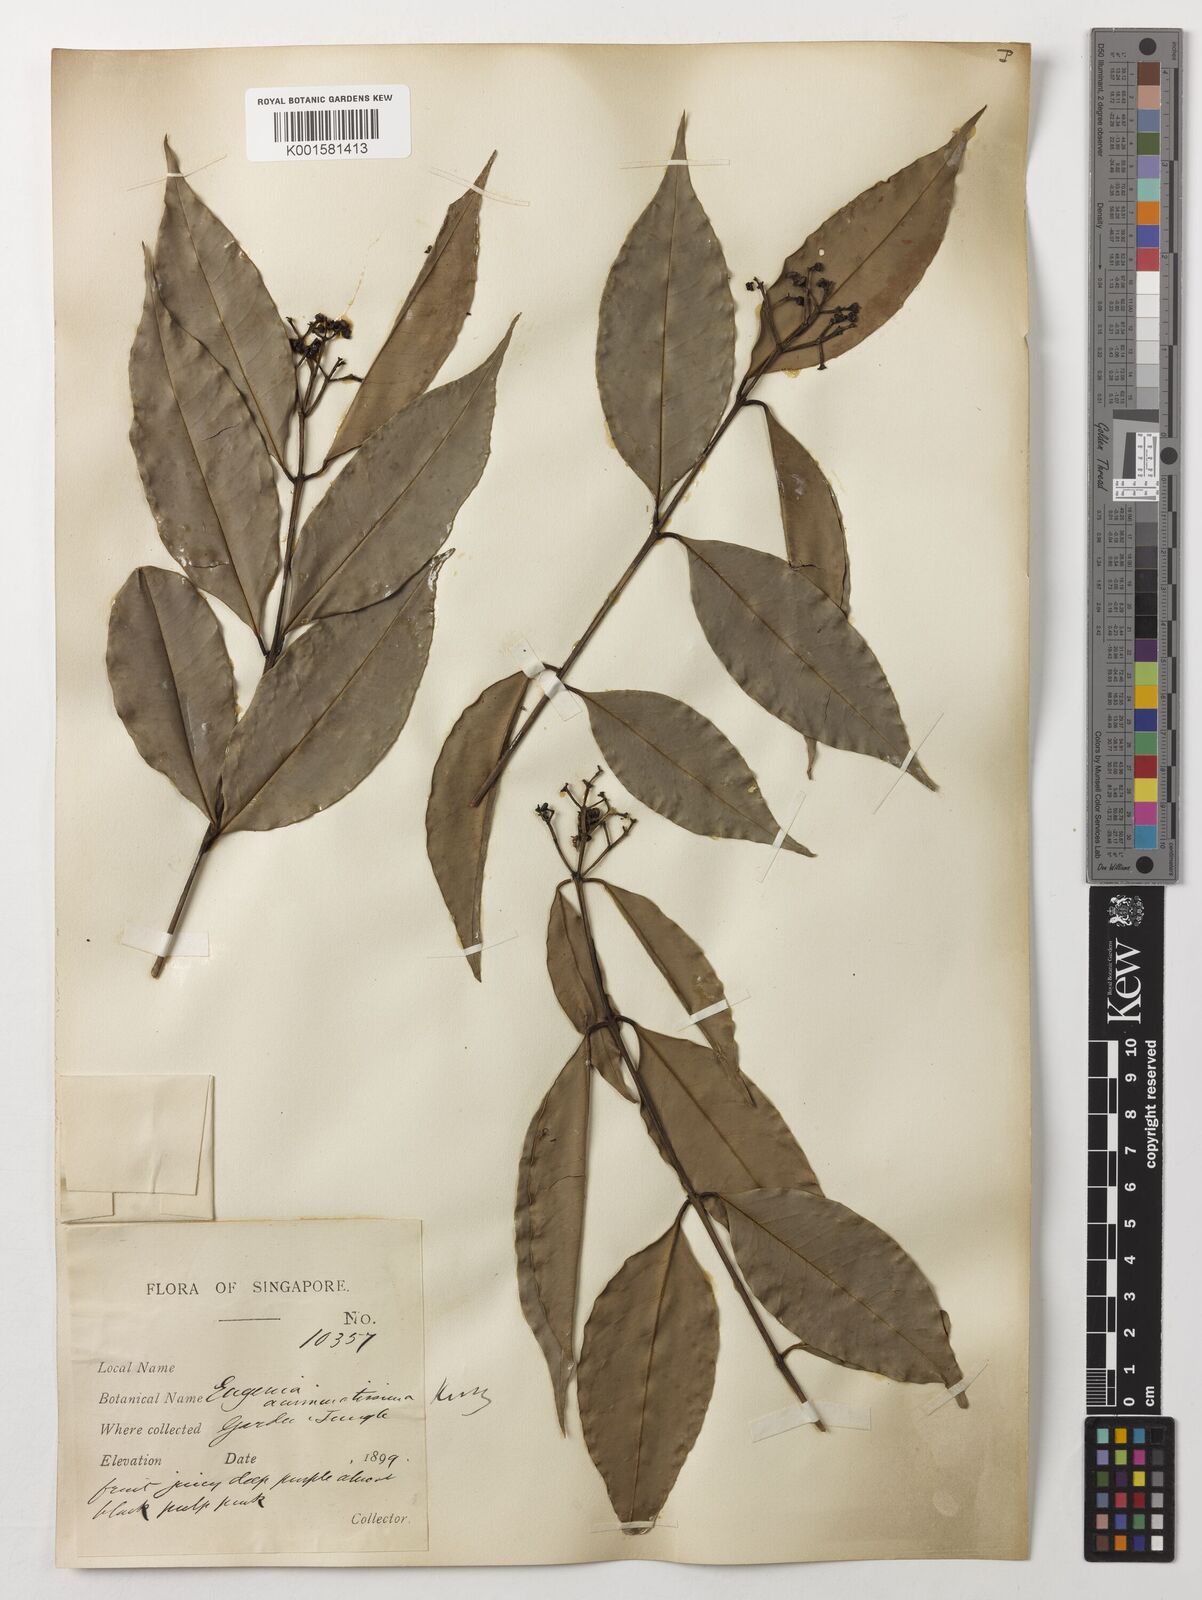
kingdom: Plantae
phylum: Tracheophyta
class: Magnoliopsida
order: Myrtales
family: Myrtaceae
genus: Eugenia
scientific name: Eugenia biflora
